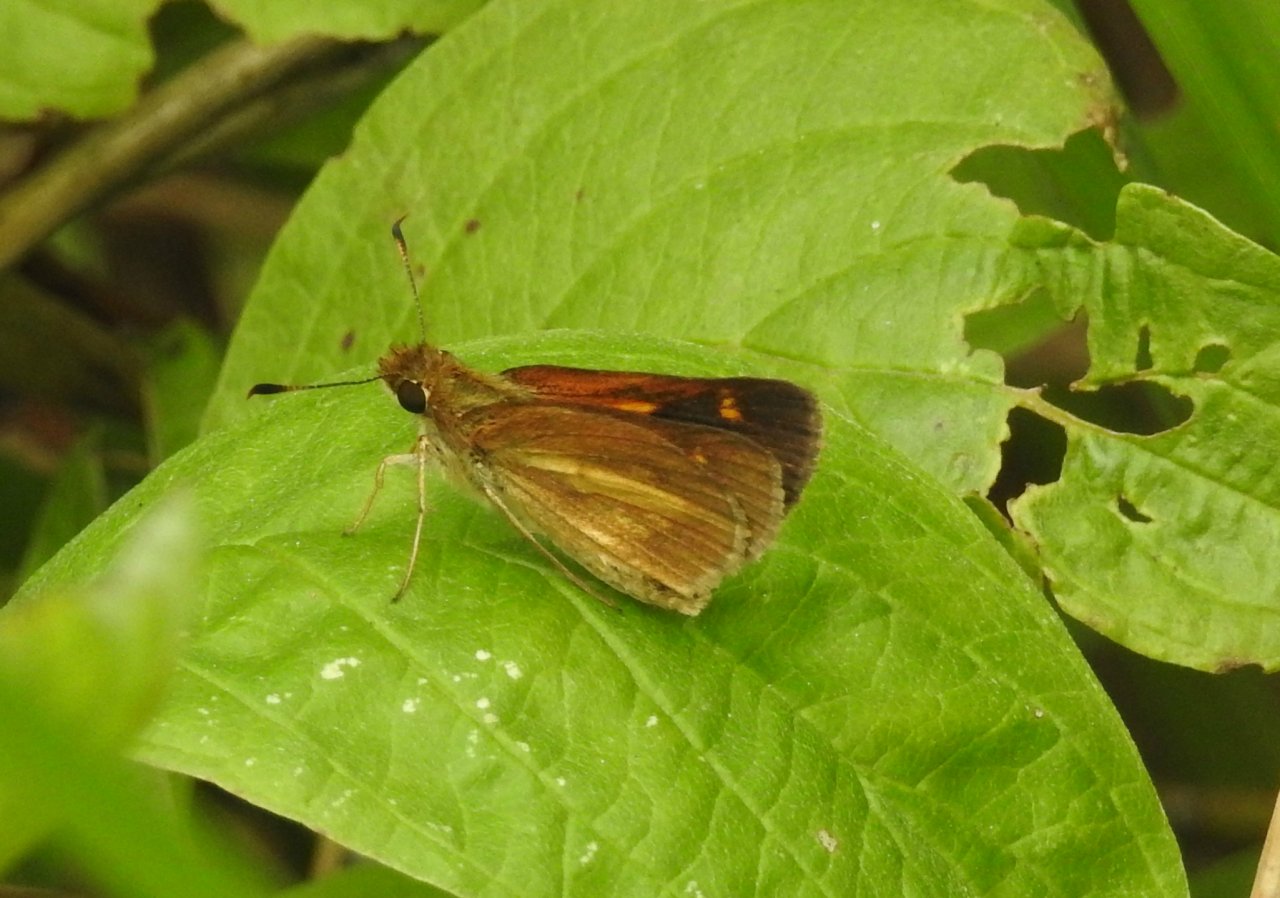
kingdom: Animalia
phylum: Arthropoda
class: Insecta
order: Lepidoptera
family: Hesperiidae
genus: Poanes
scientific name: Poanes viator
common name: Broad-winged Skipper
